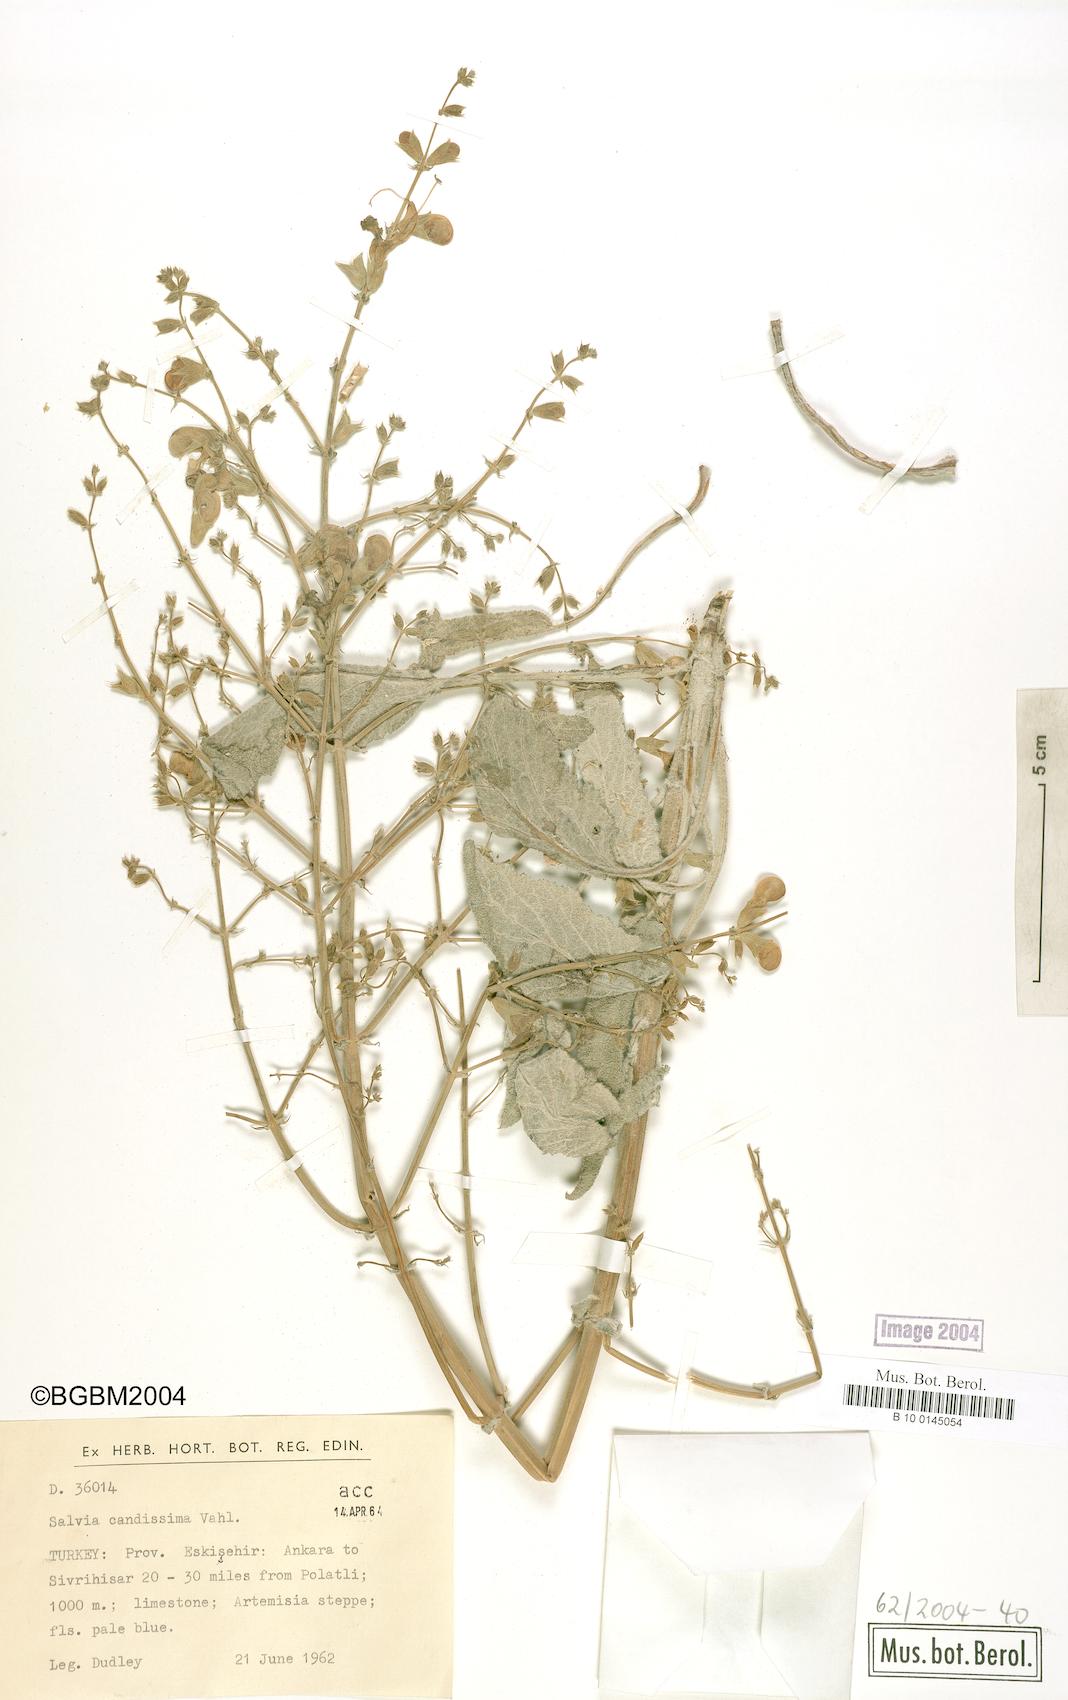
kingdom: Plantae
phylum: Tracheophyta
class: Magnoliopsida
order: Lamiales
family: Lamiaceae
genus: Salvia
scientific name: Salvia candidissima
